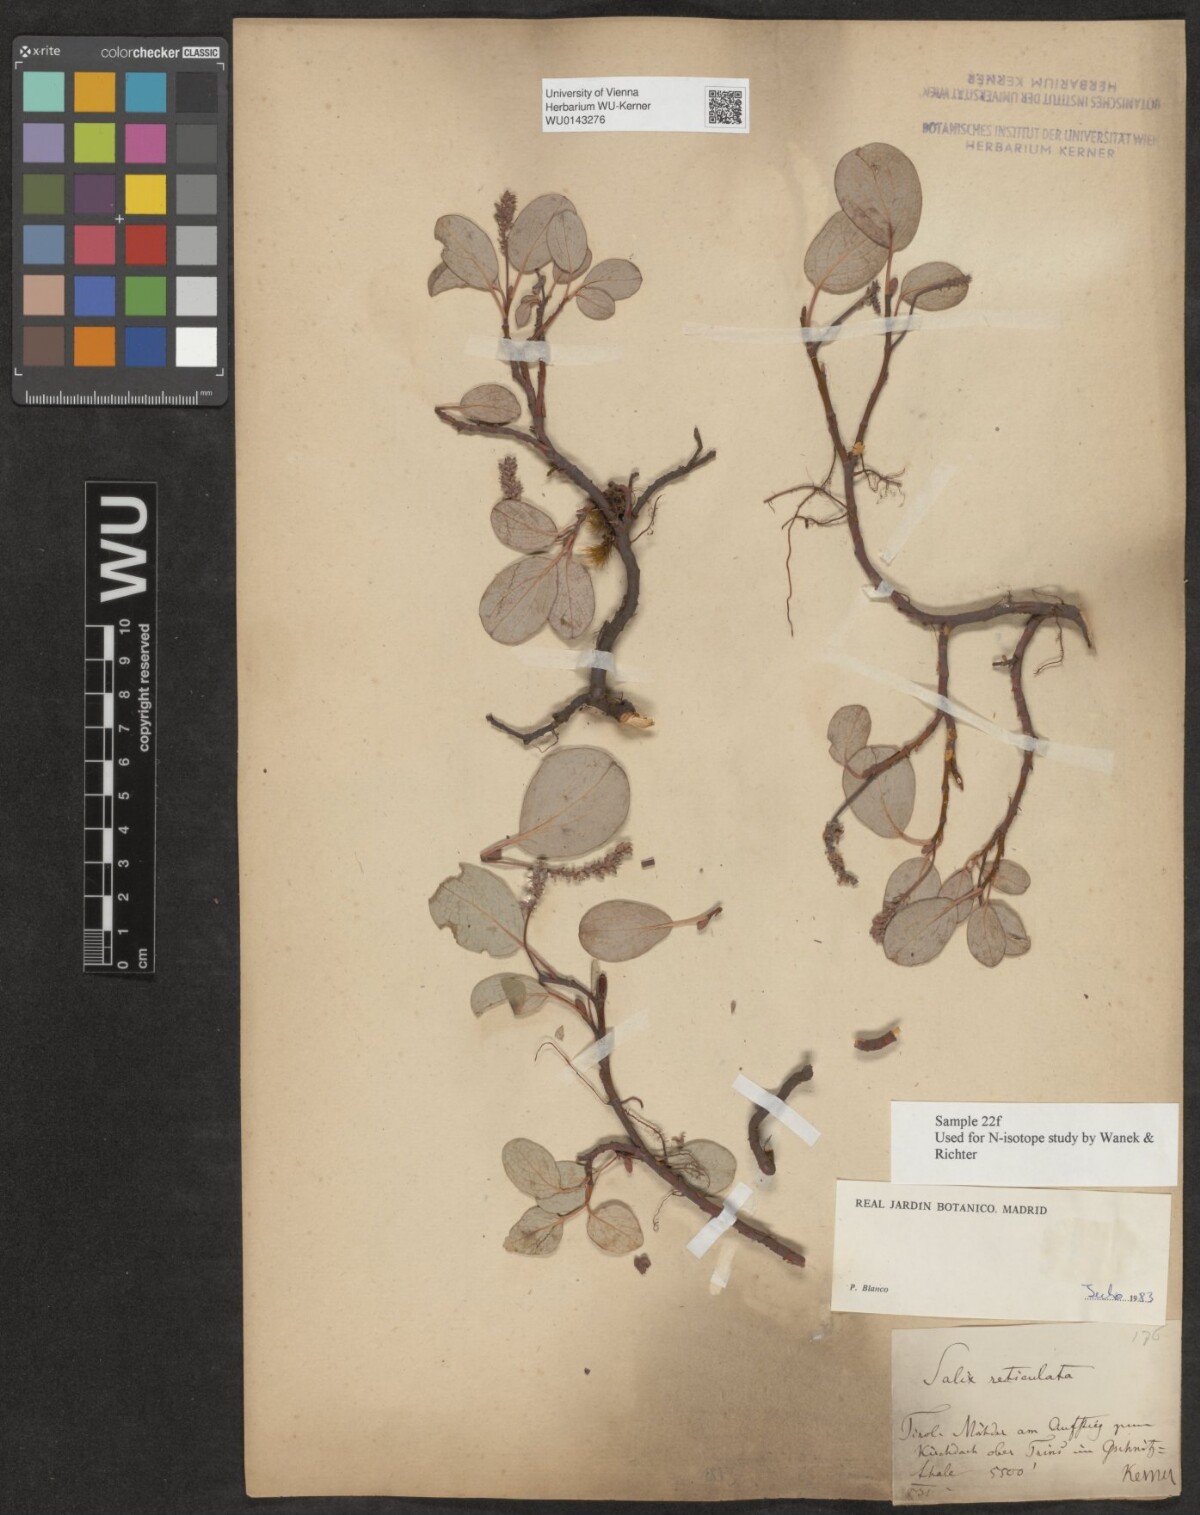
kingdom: Plantae
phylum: Tracheophyta
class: Magnoliopsida
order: Malpighiales
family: Salicaceae
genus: Salix
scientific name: Salix reticulata
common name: Net-leaved willow
